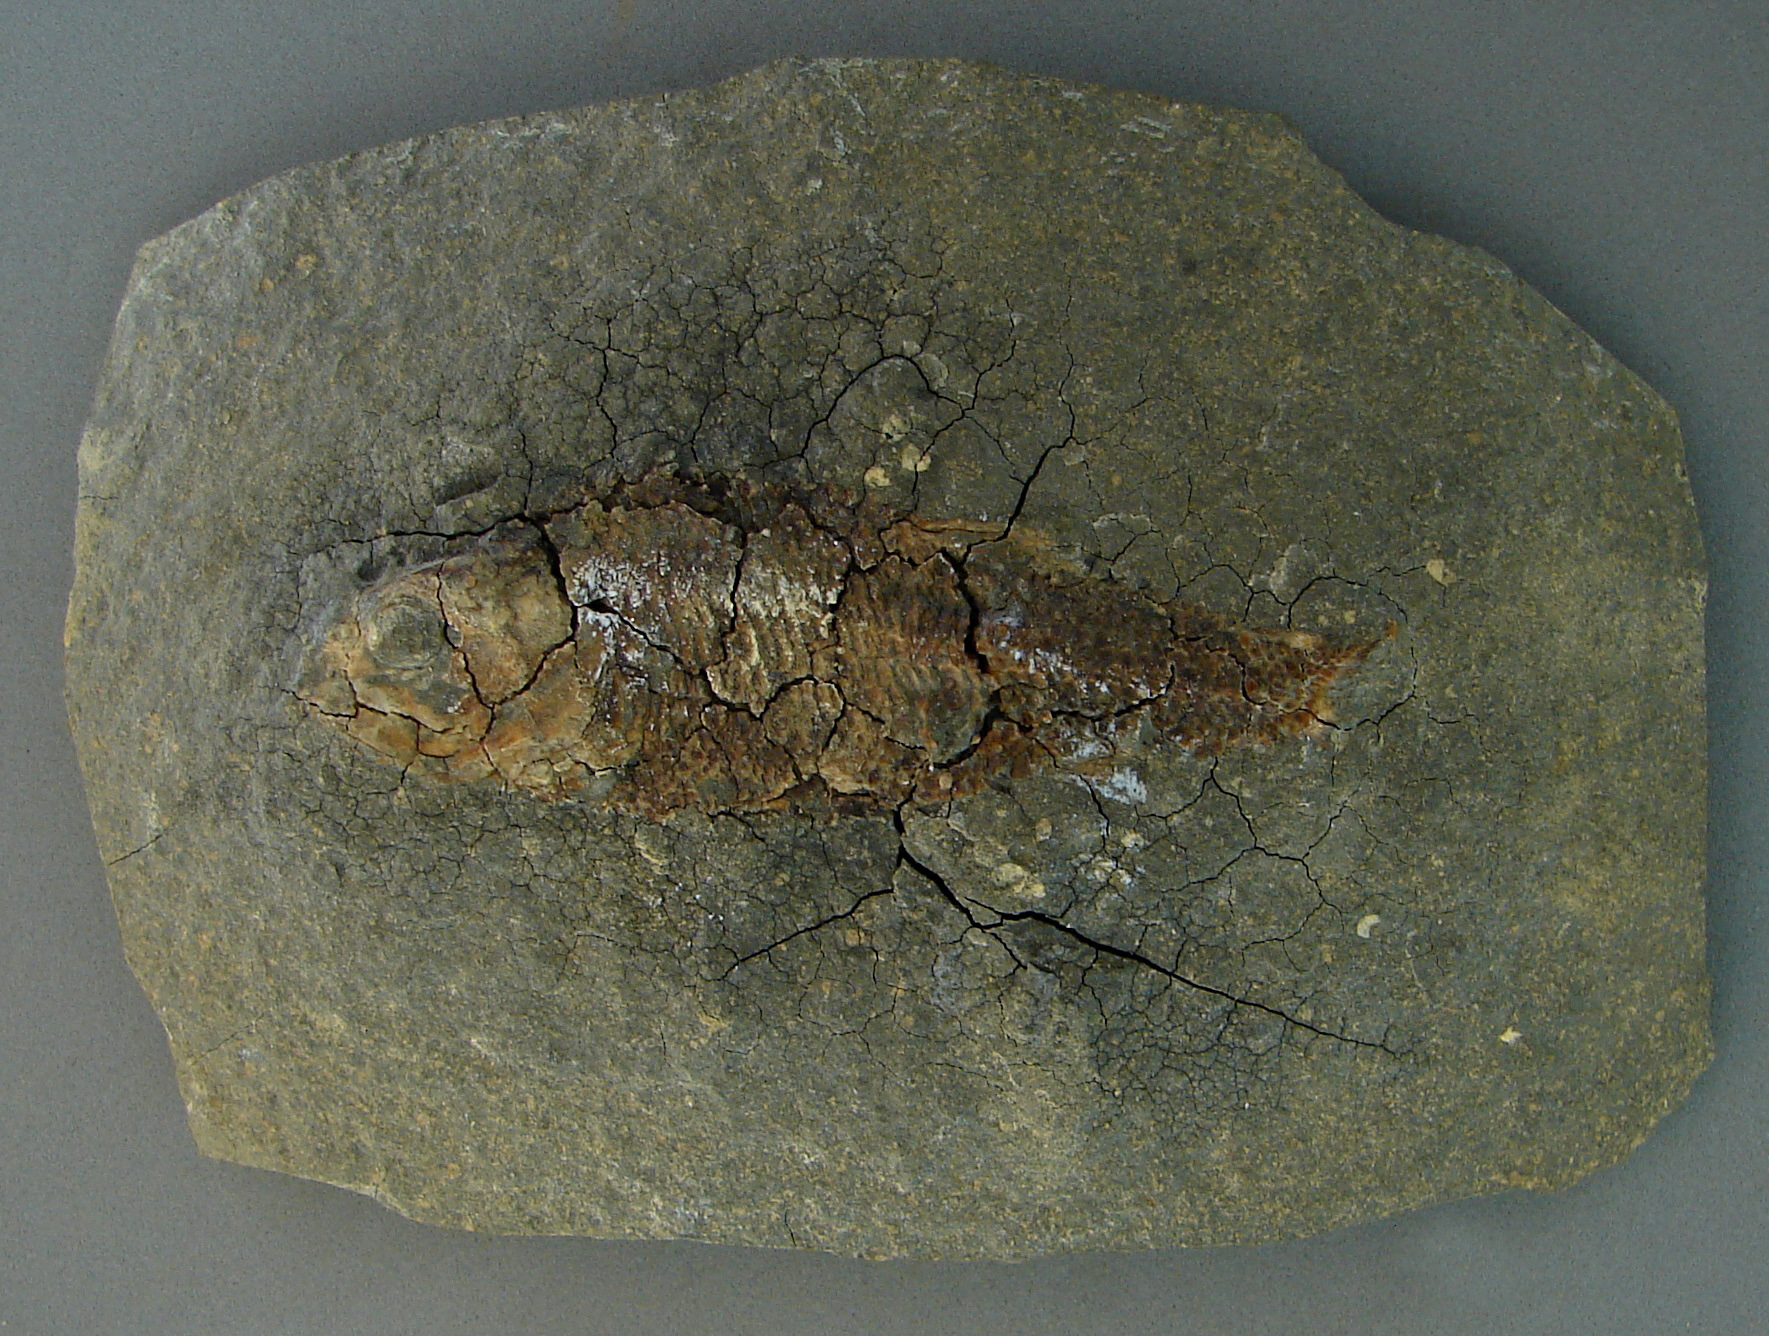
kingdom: Animalia
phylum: Chordata
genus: Luxembourgichthys
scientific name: Luxembourgichthys friedeni
